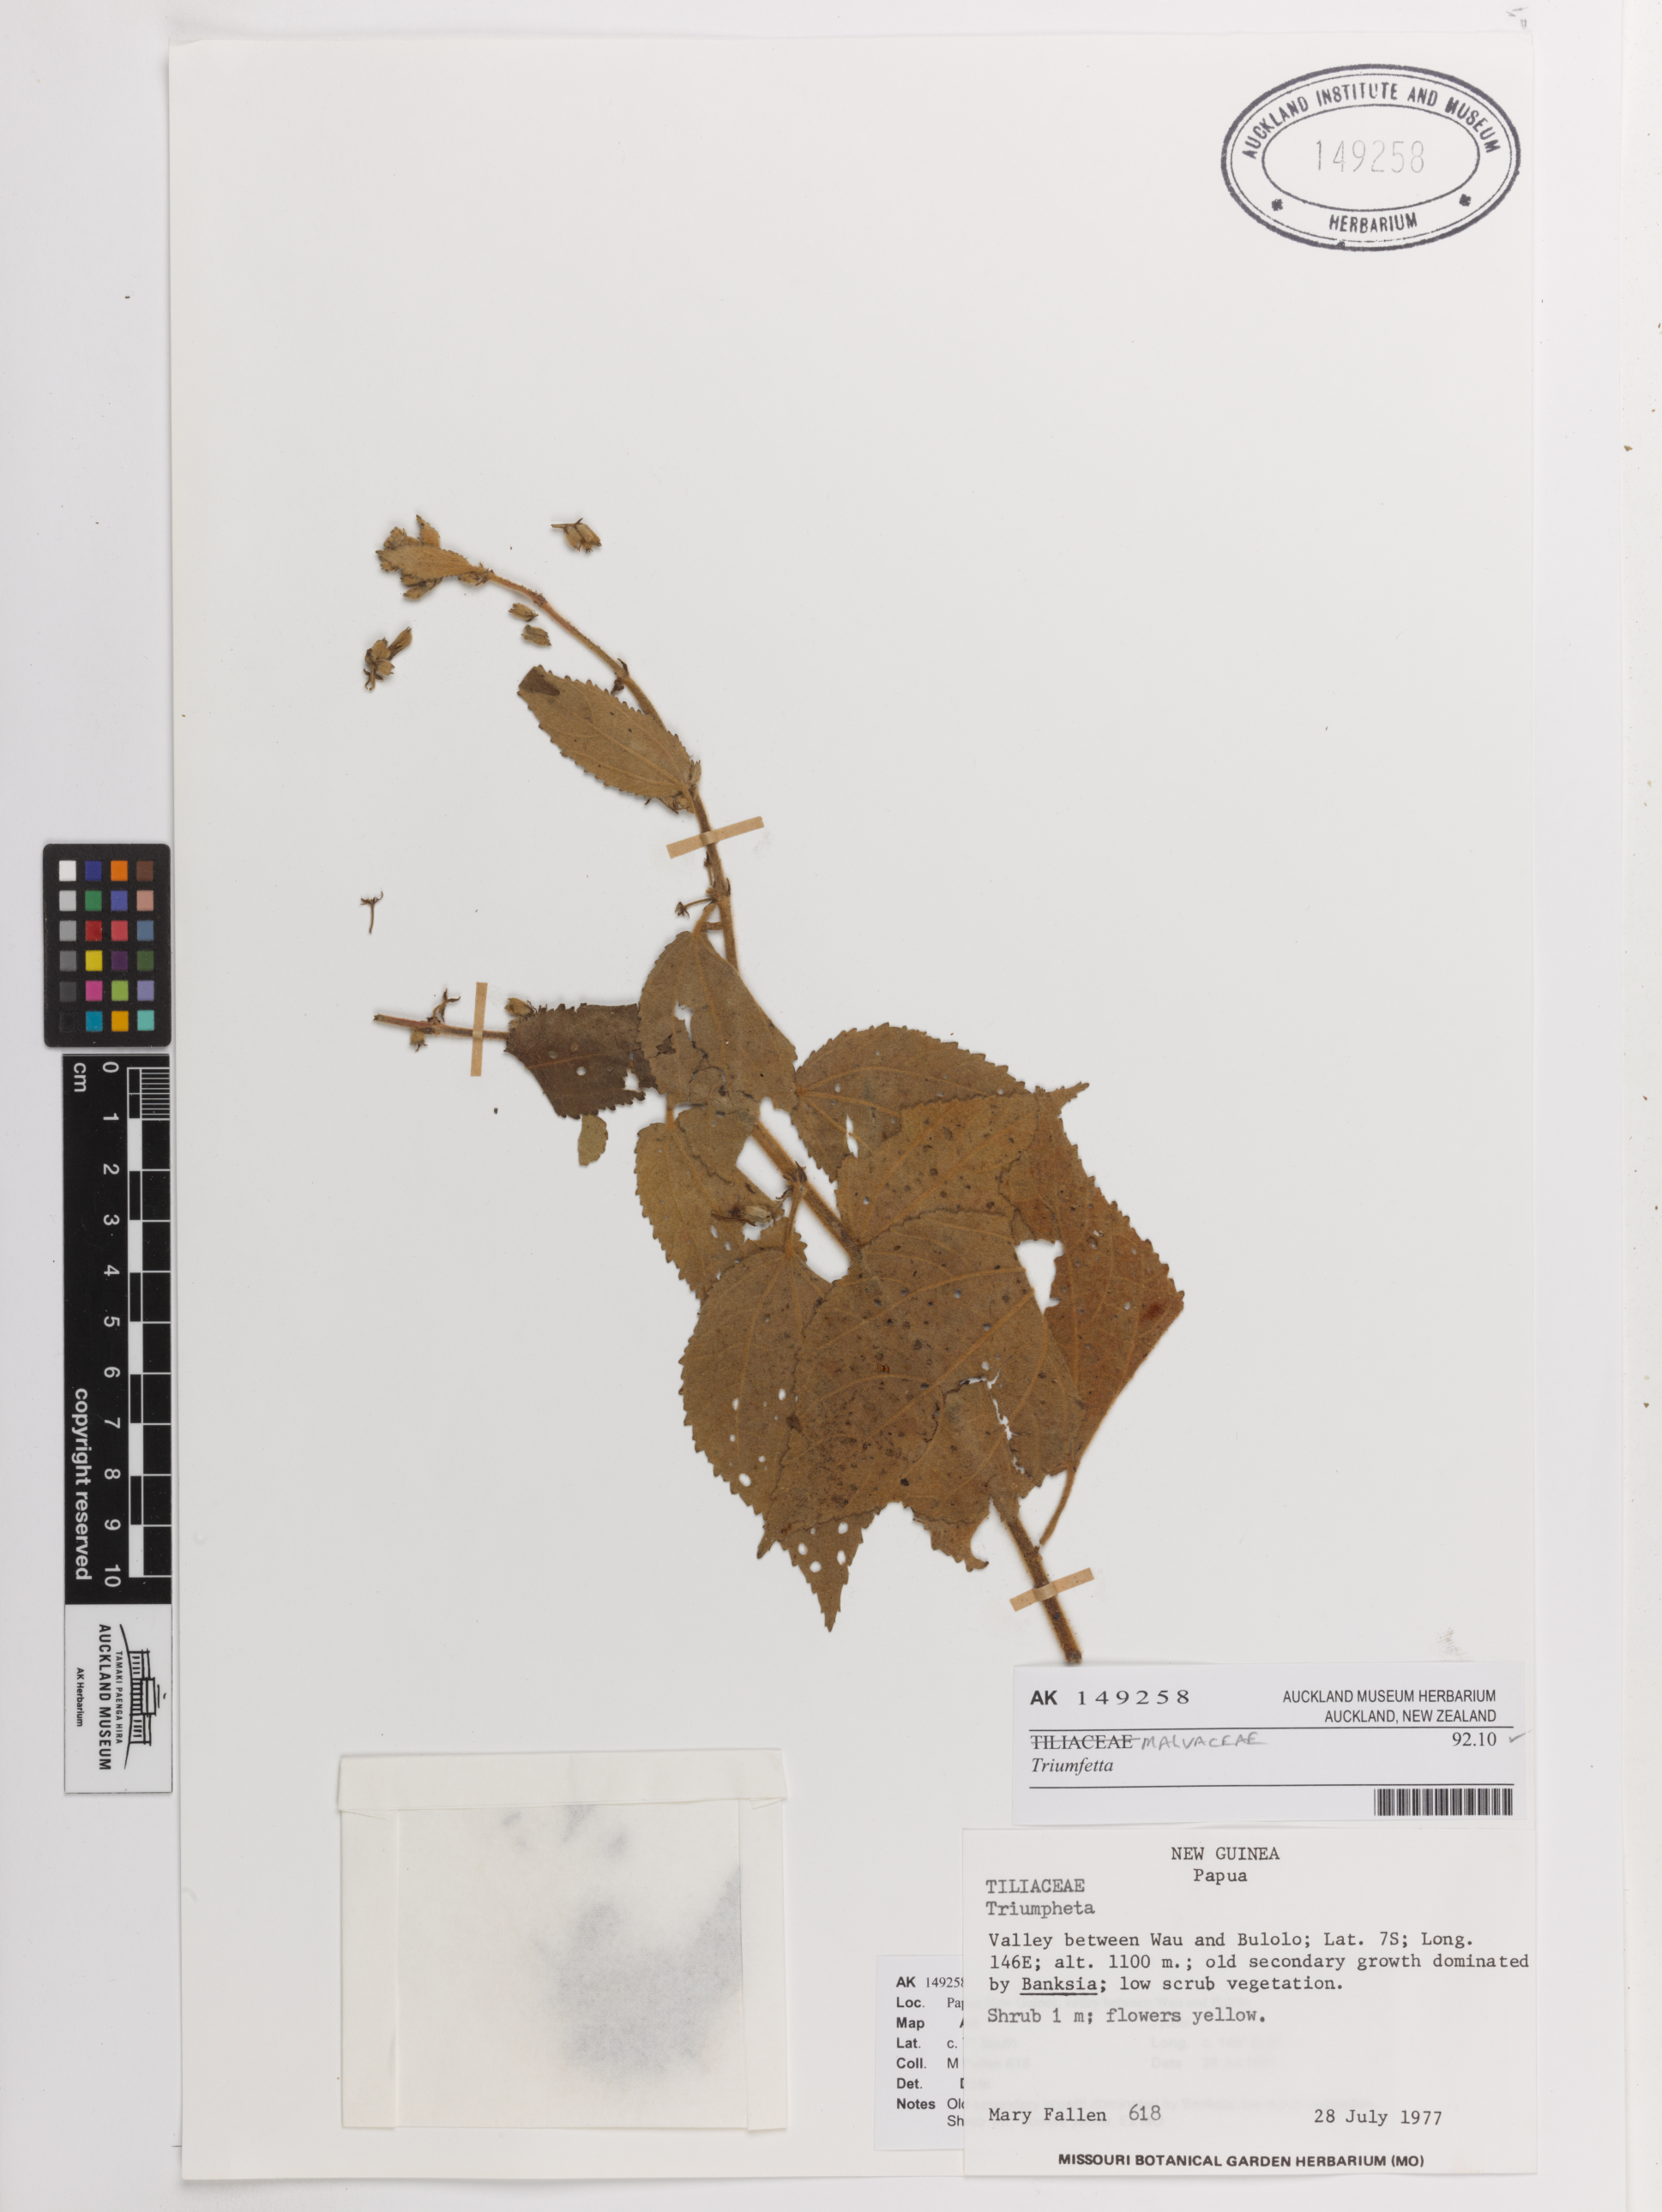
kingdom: Plantae
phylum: Tracheophyta
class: Magnoliopsida
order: Malvales
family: Malvaceae
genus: Triumfetta
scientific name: Triumfetta
